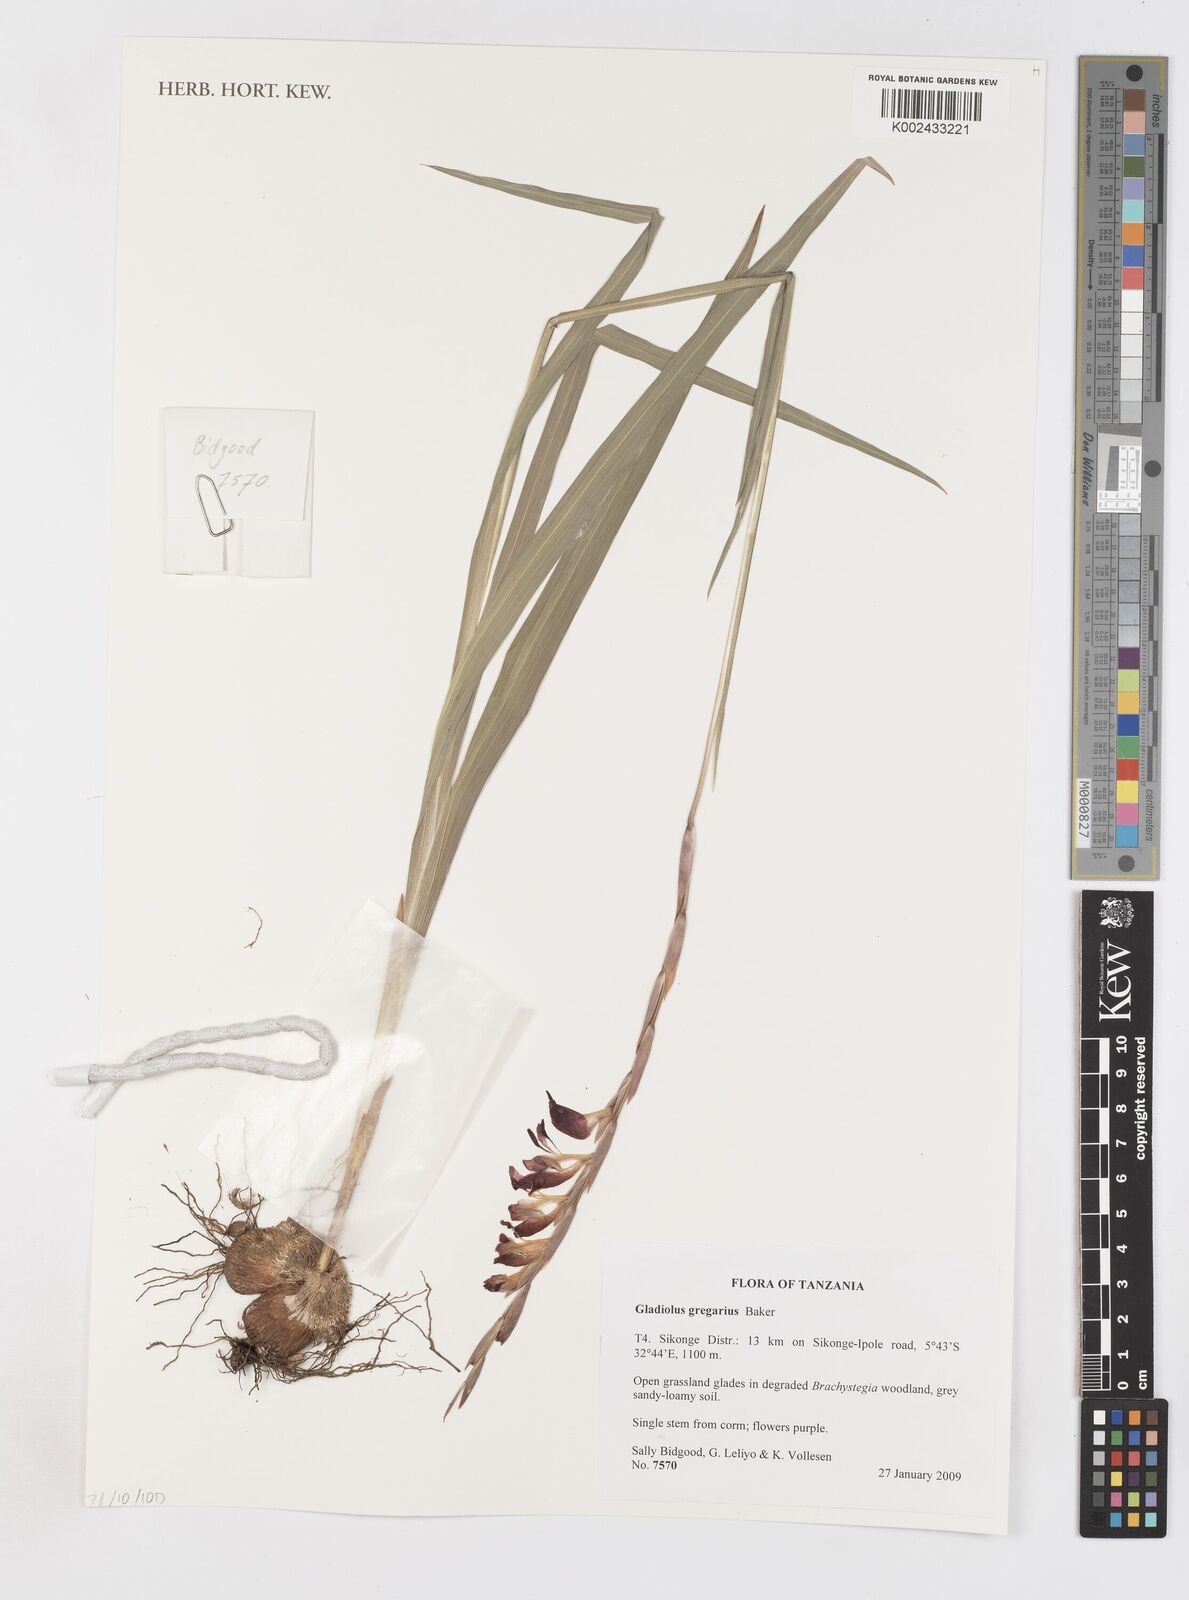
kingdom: Plantae
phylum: Tracheophyta
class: Liliopsida
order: Asparagales
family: Iridaceae
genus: Gladiolus
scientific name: Gladiolus gregarius
